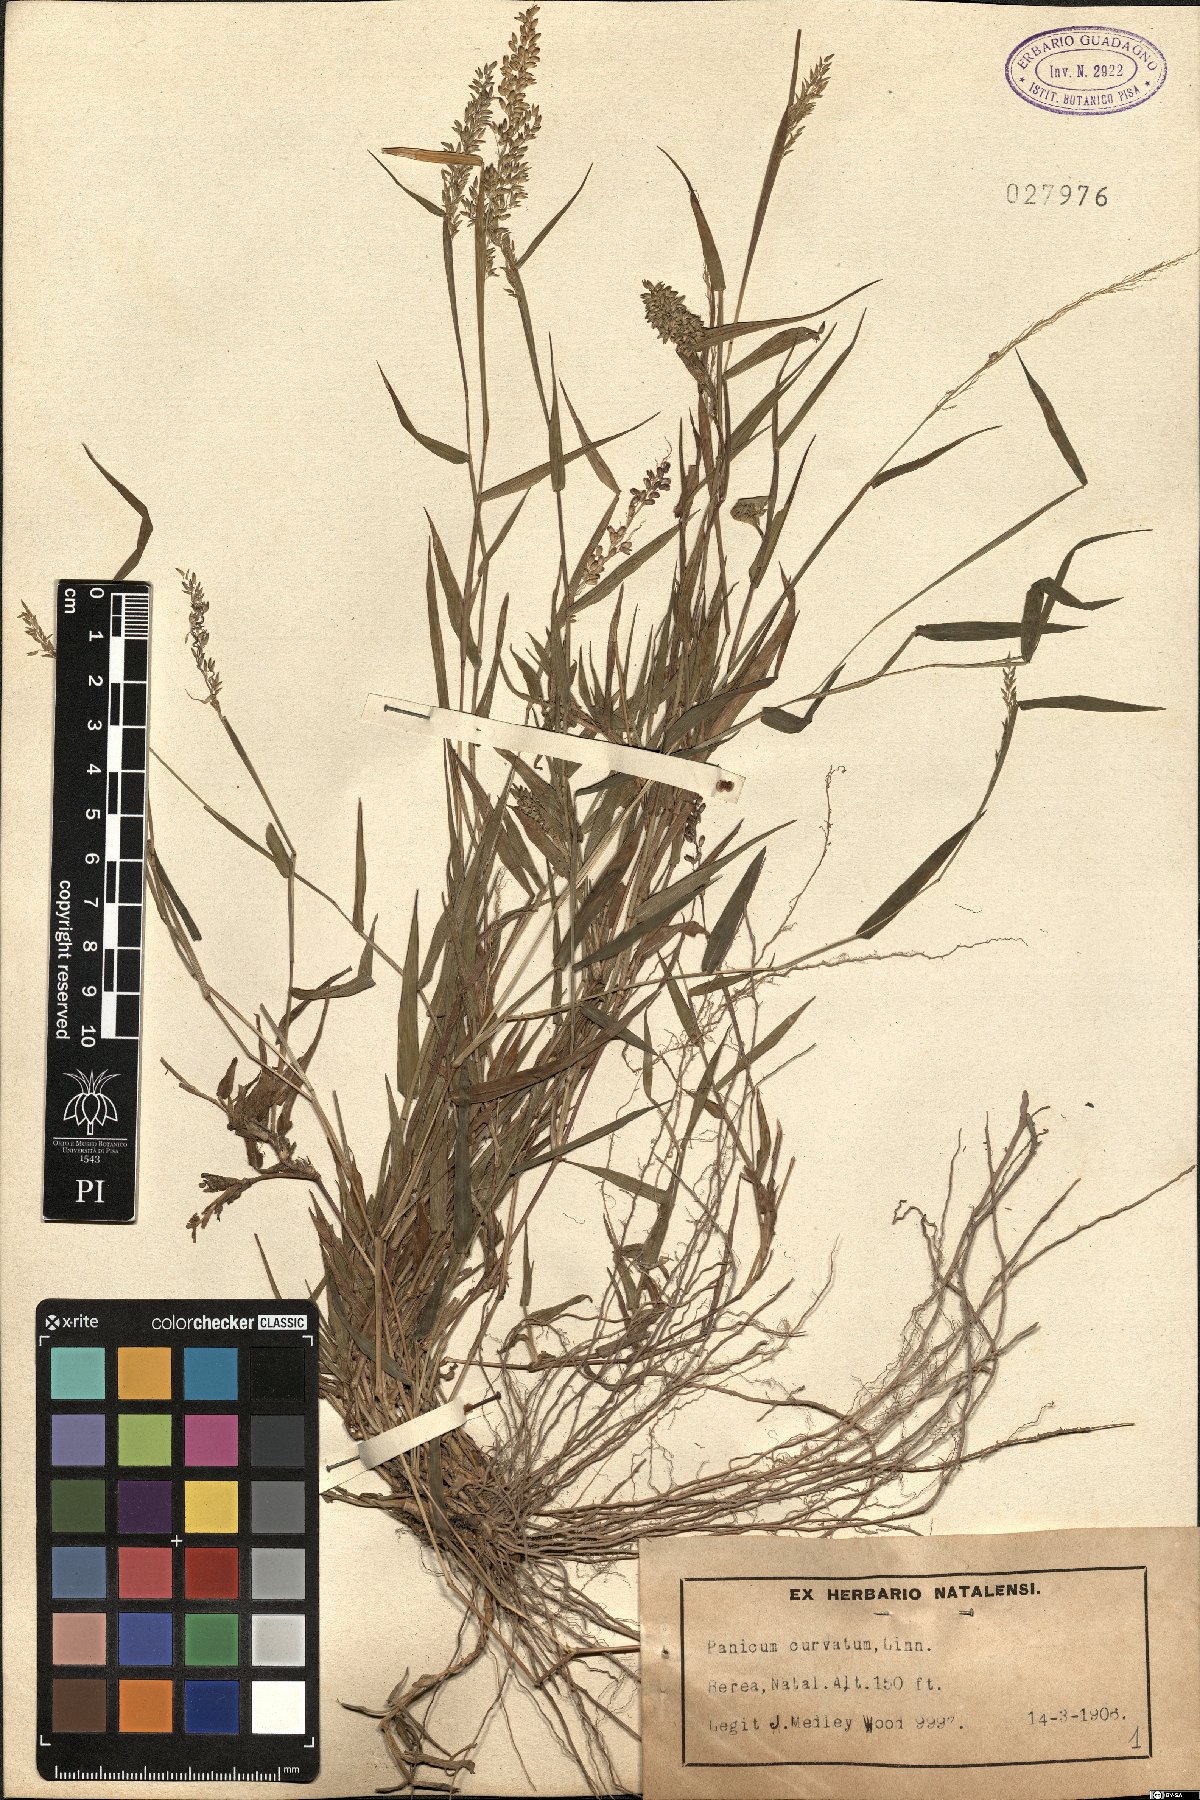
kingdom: Plantae
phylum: Tracheophyta
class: Liliopsida
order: Poales
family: Poaceae
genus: Sacciolepis
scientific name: Sacciolepis curvata
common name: Forest hood grass
